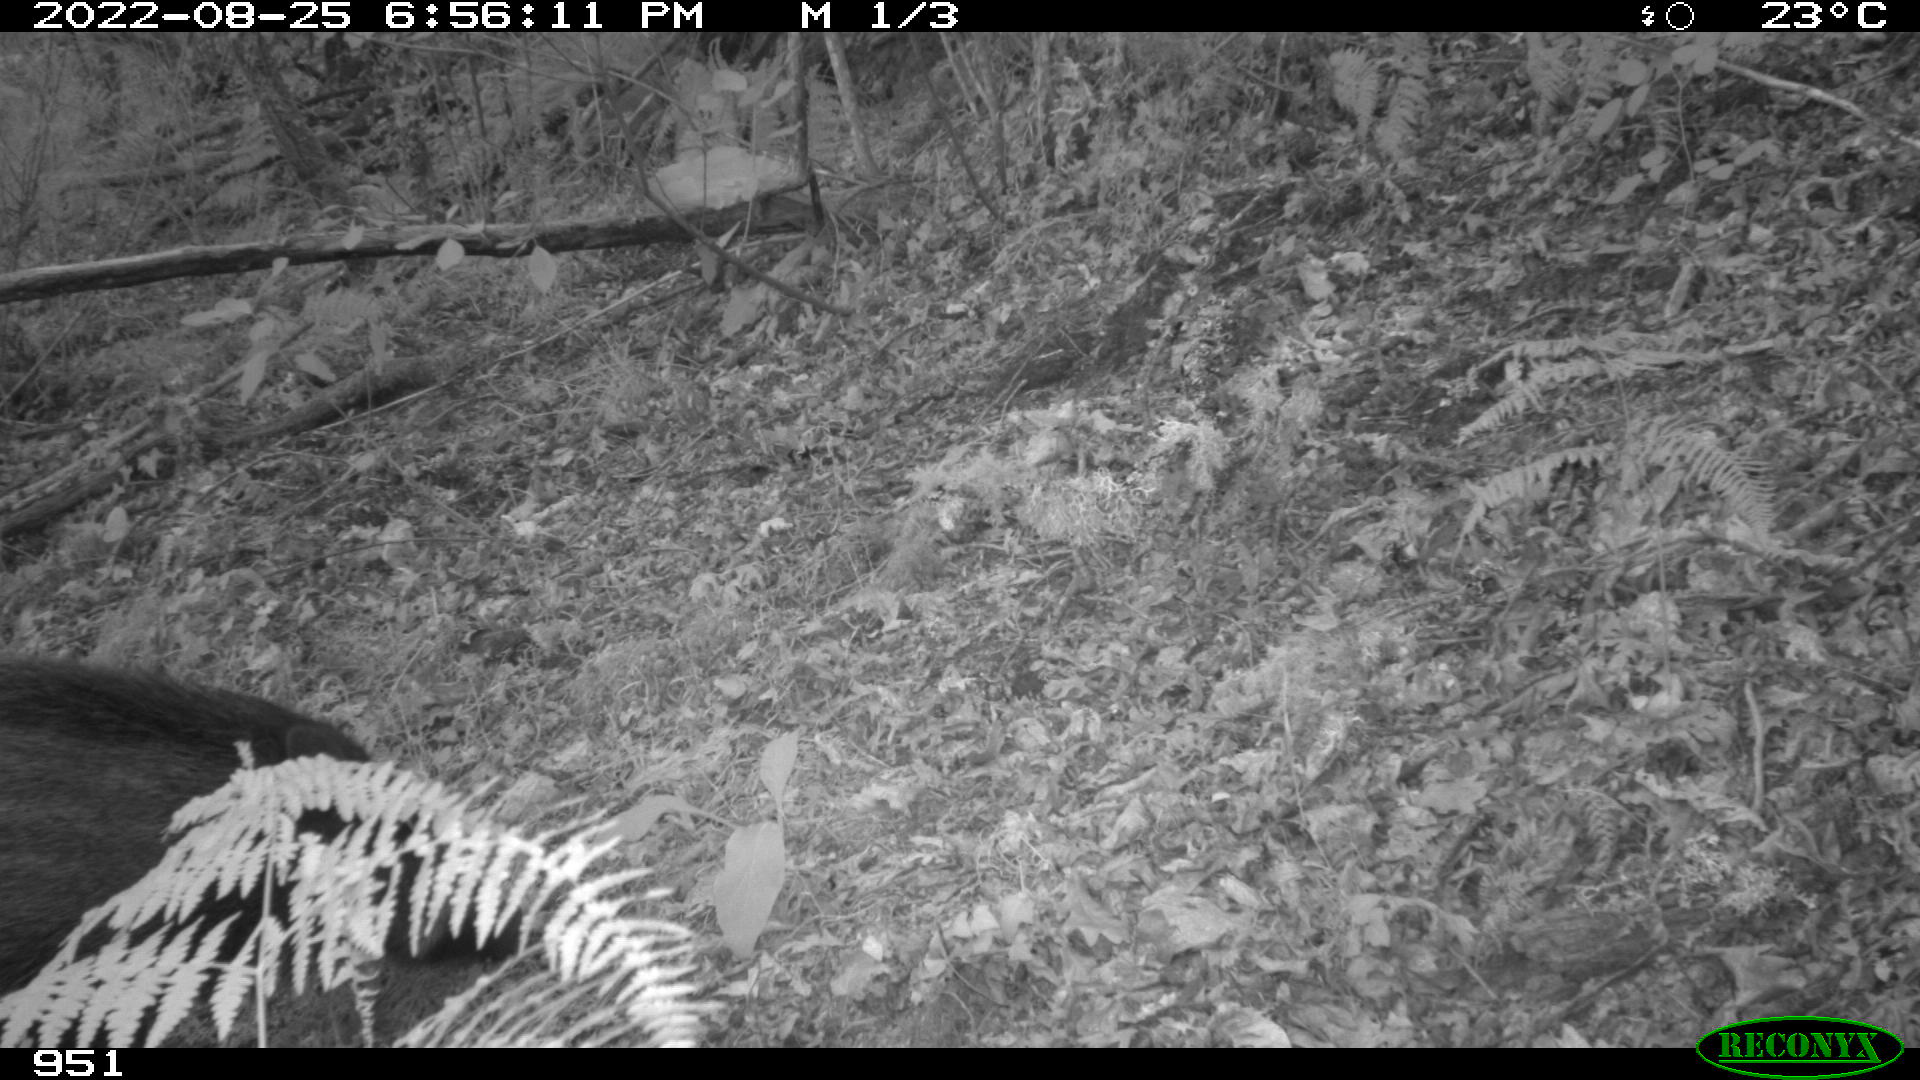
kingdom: Animalia
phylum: Chordata
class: Mammalia
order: Artiodactyla
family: Suidae
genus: Sus
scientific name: Sus scrofa
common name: Wild boar
